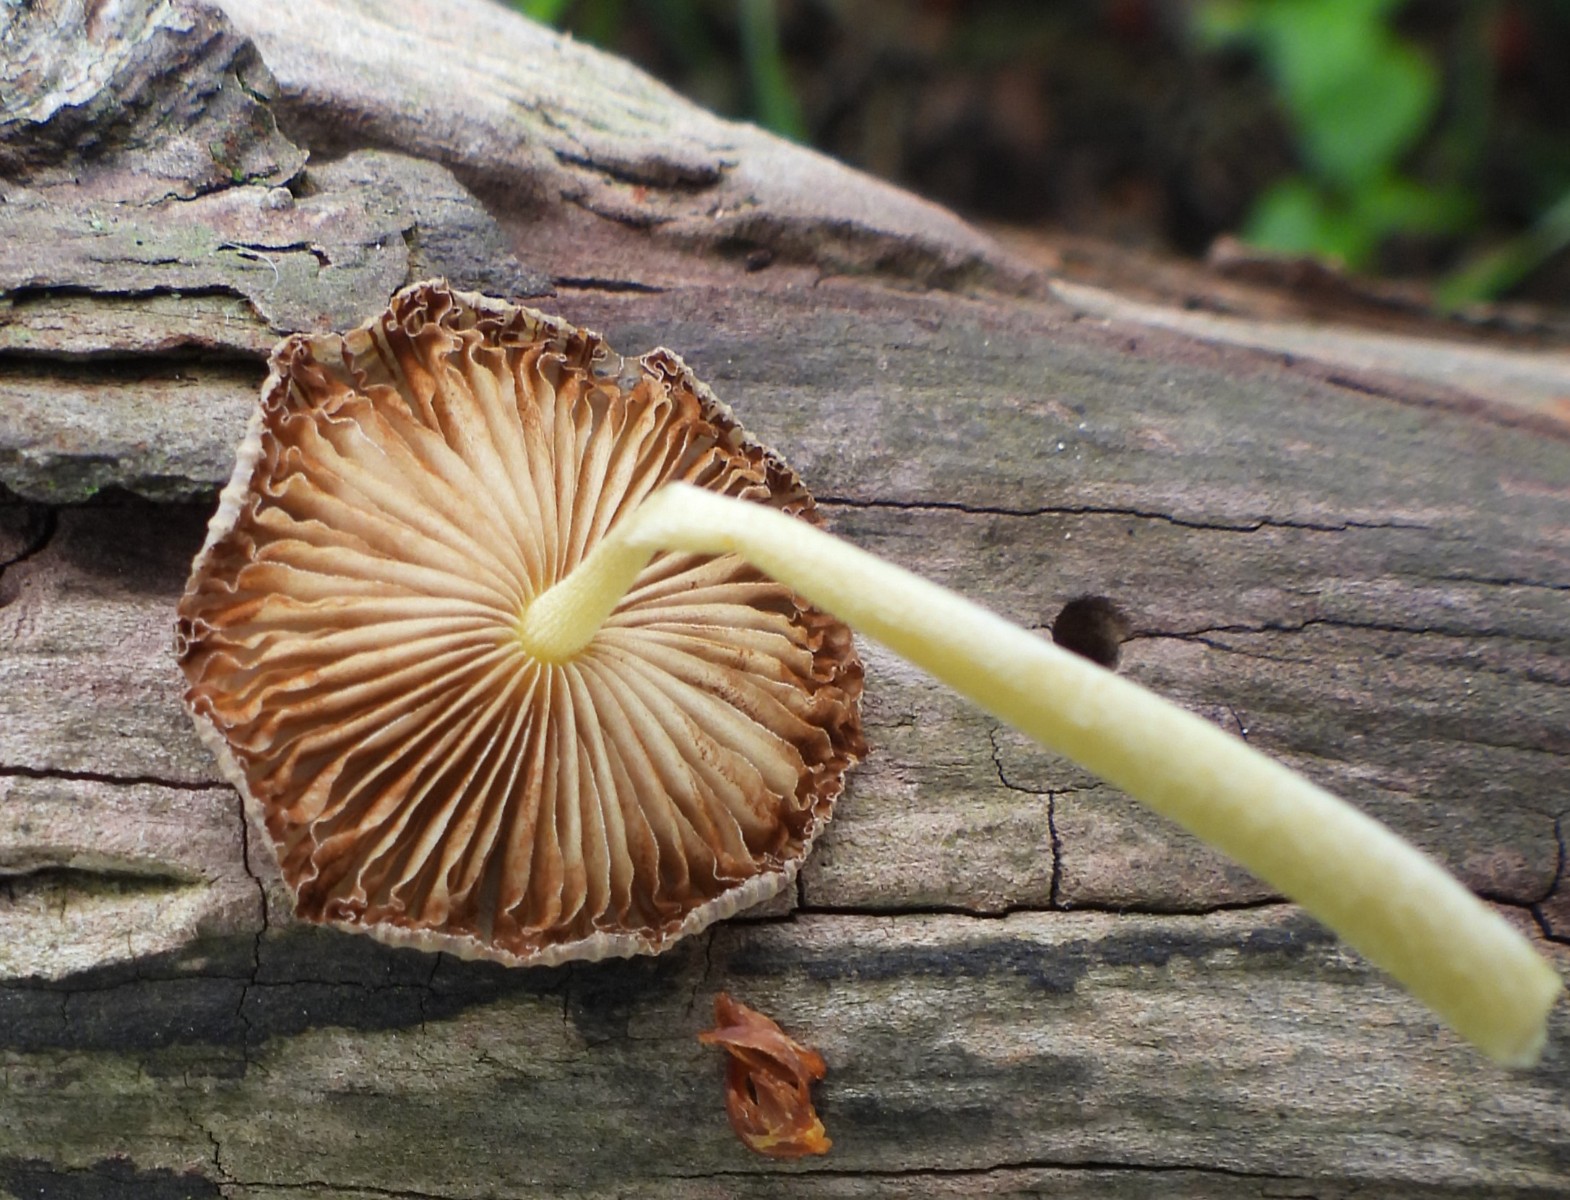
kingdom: Fungi
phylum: Basidiomycota
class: Agaricomycetes
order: Agaricales
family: Bolbitiaceae
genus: Bolbitius
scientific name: Bolbitius titubans
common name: almindelig gulhat
